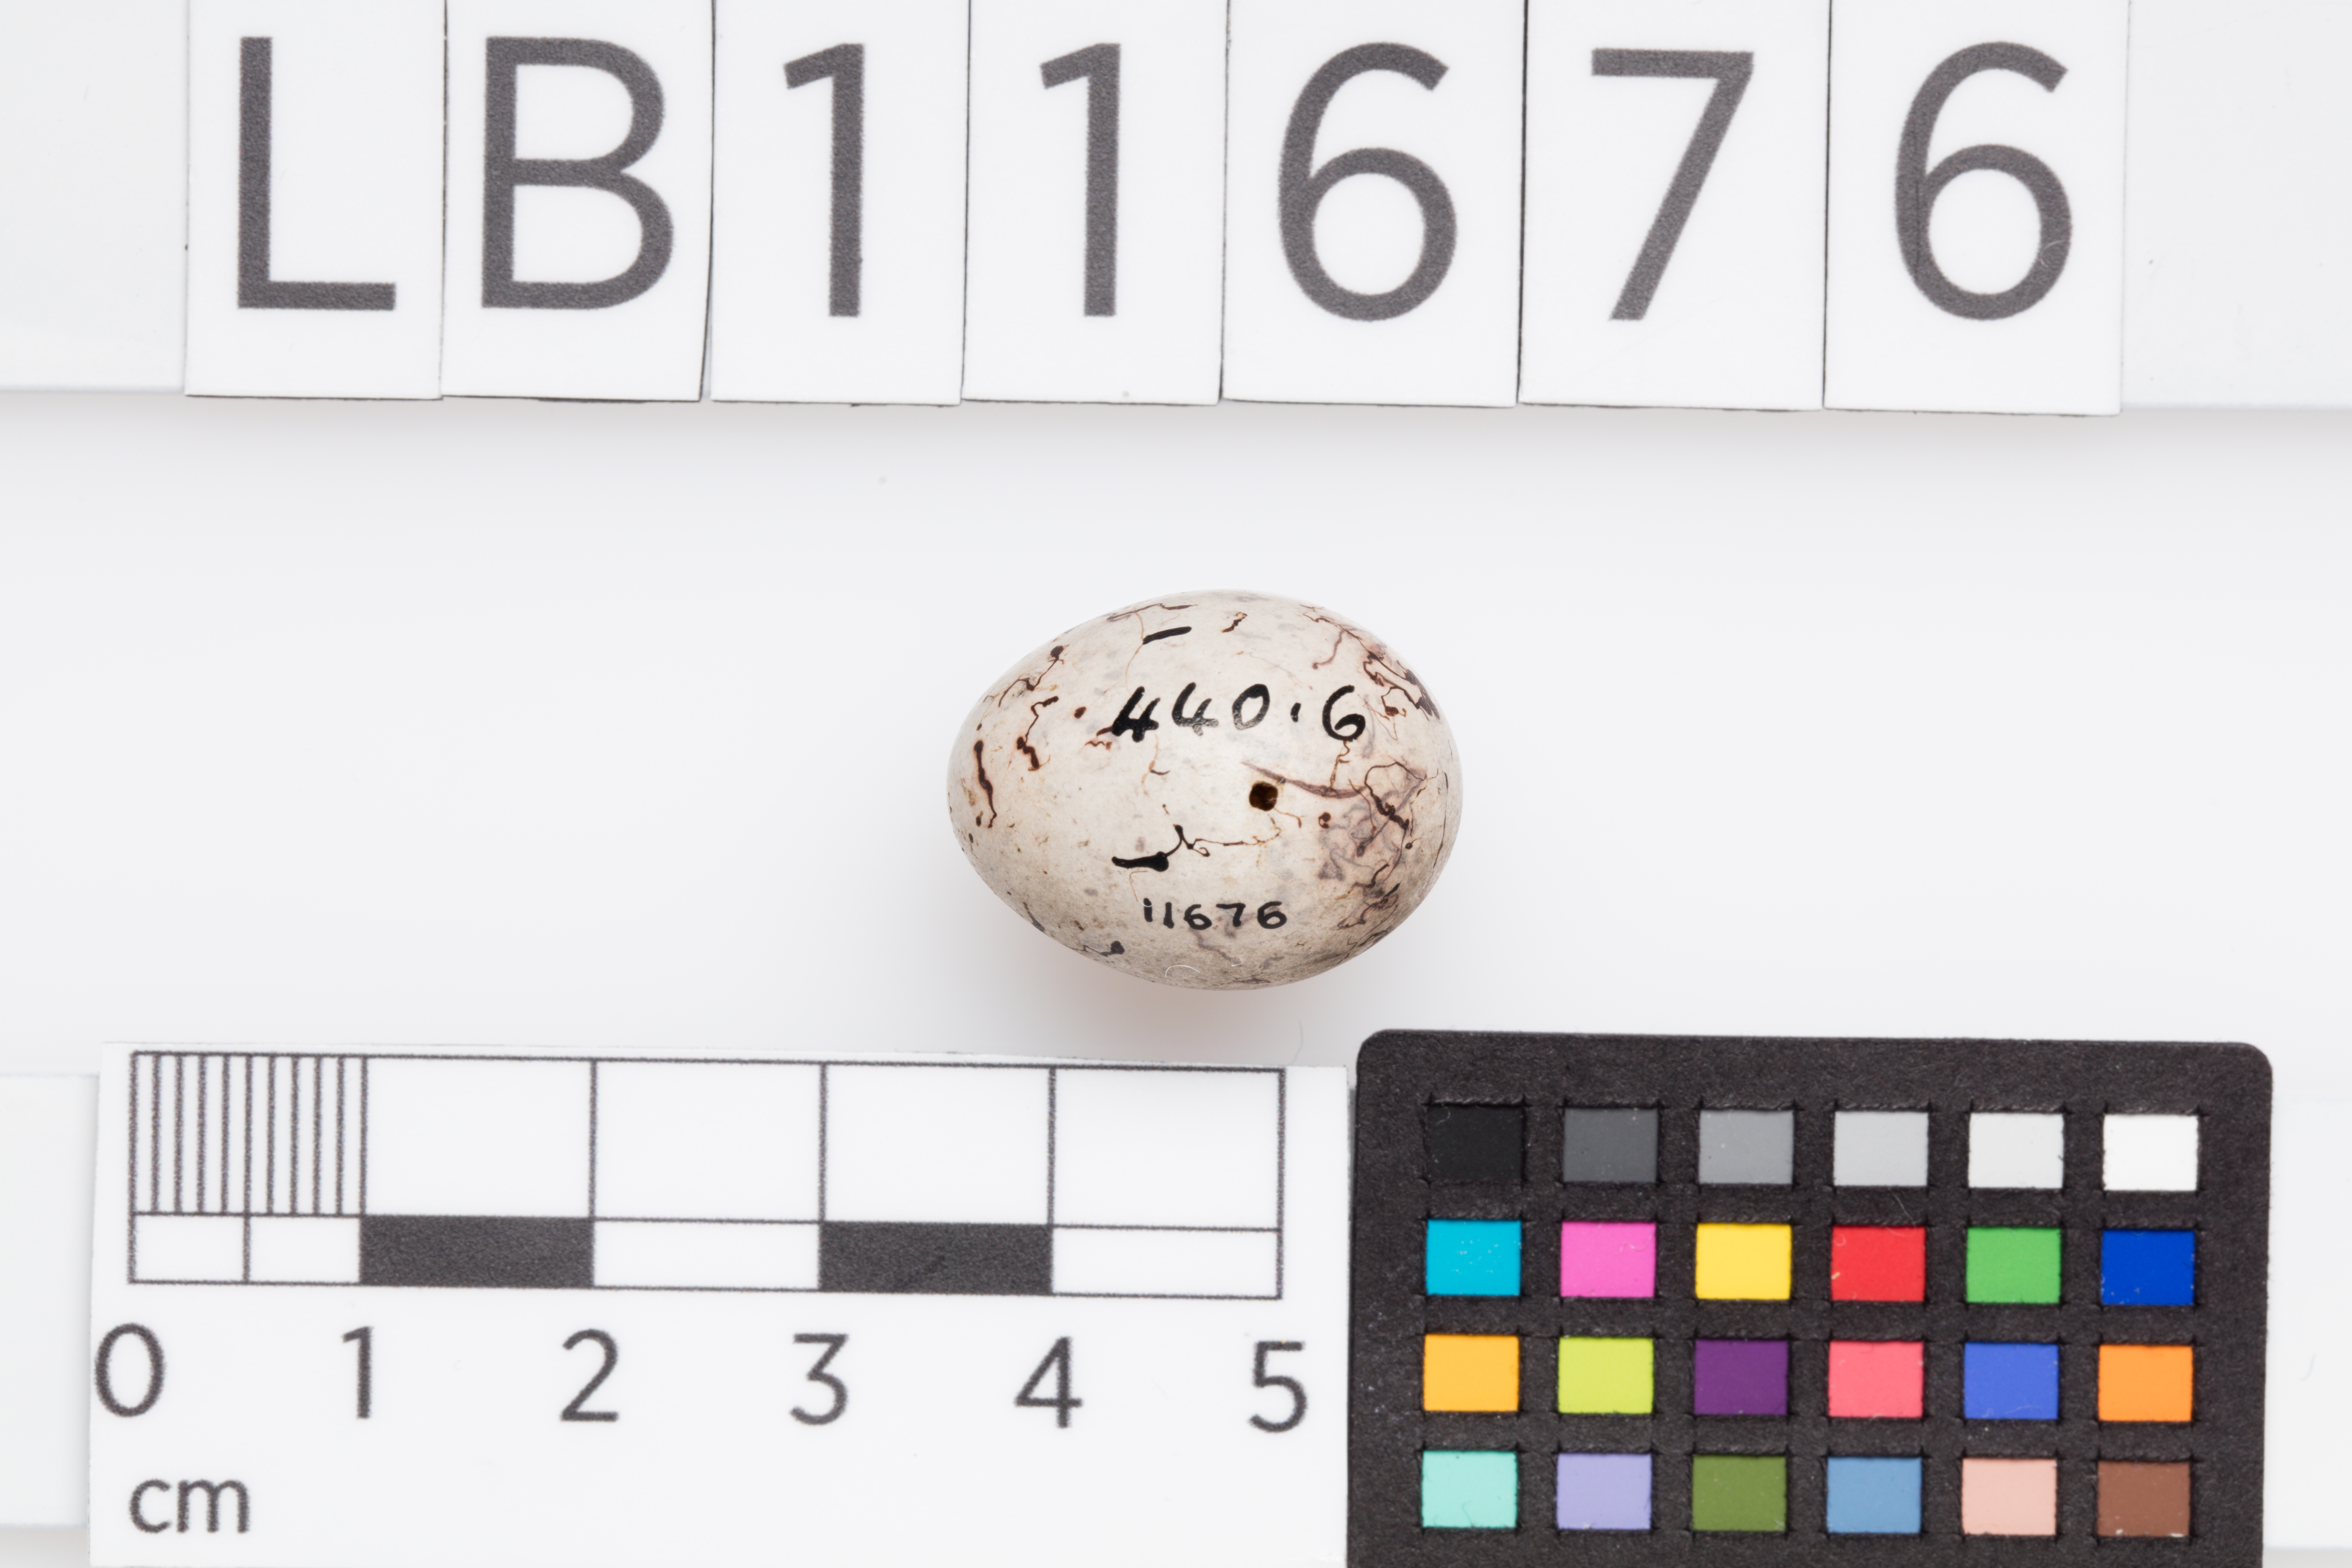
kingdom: Animalia
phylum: Chordata
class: Aves
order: Passeriformes
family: Emberizidae
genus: Emberiza
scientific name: Emberiza citrinella
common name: Yellowhammer
